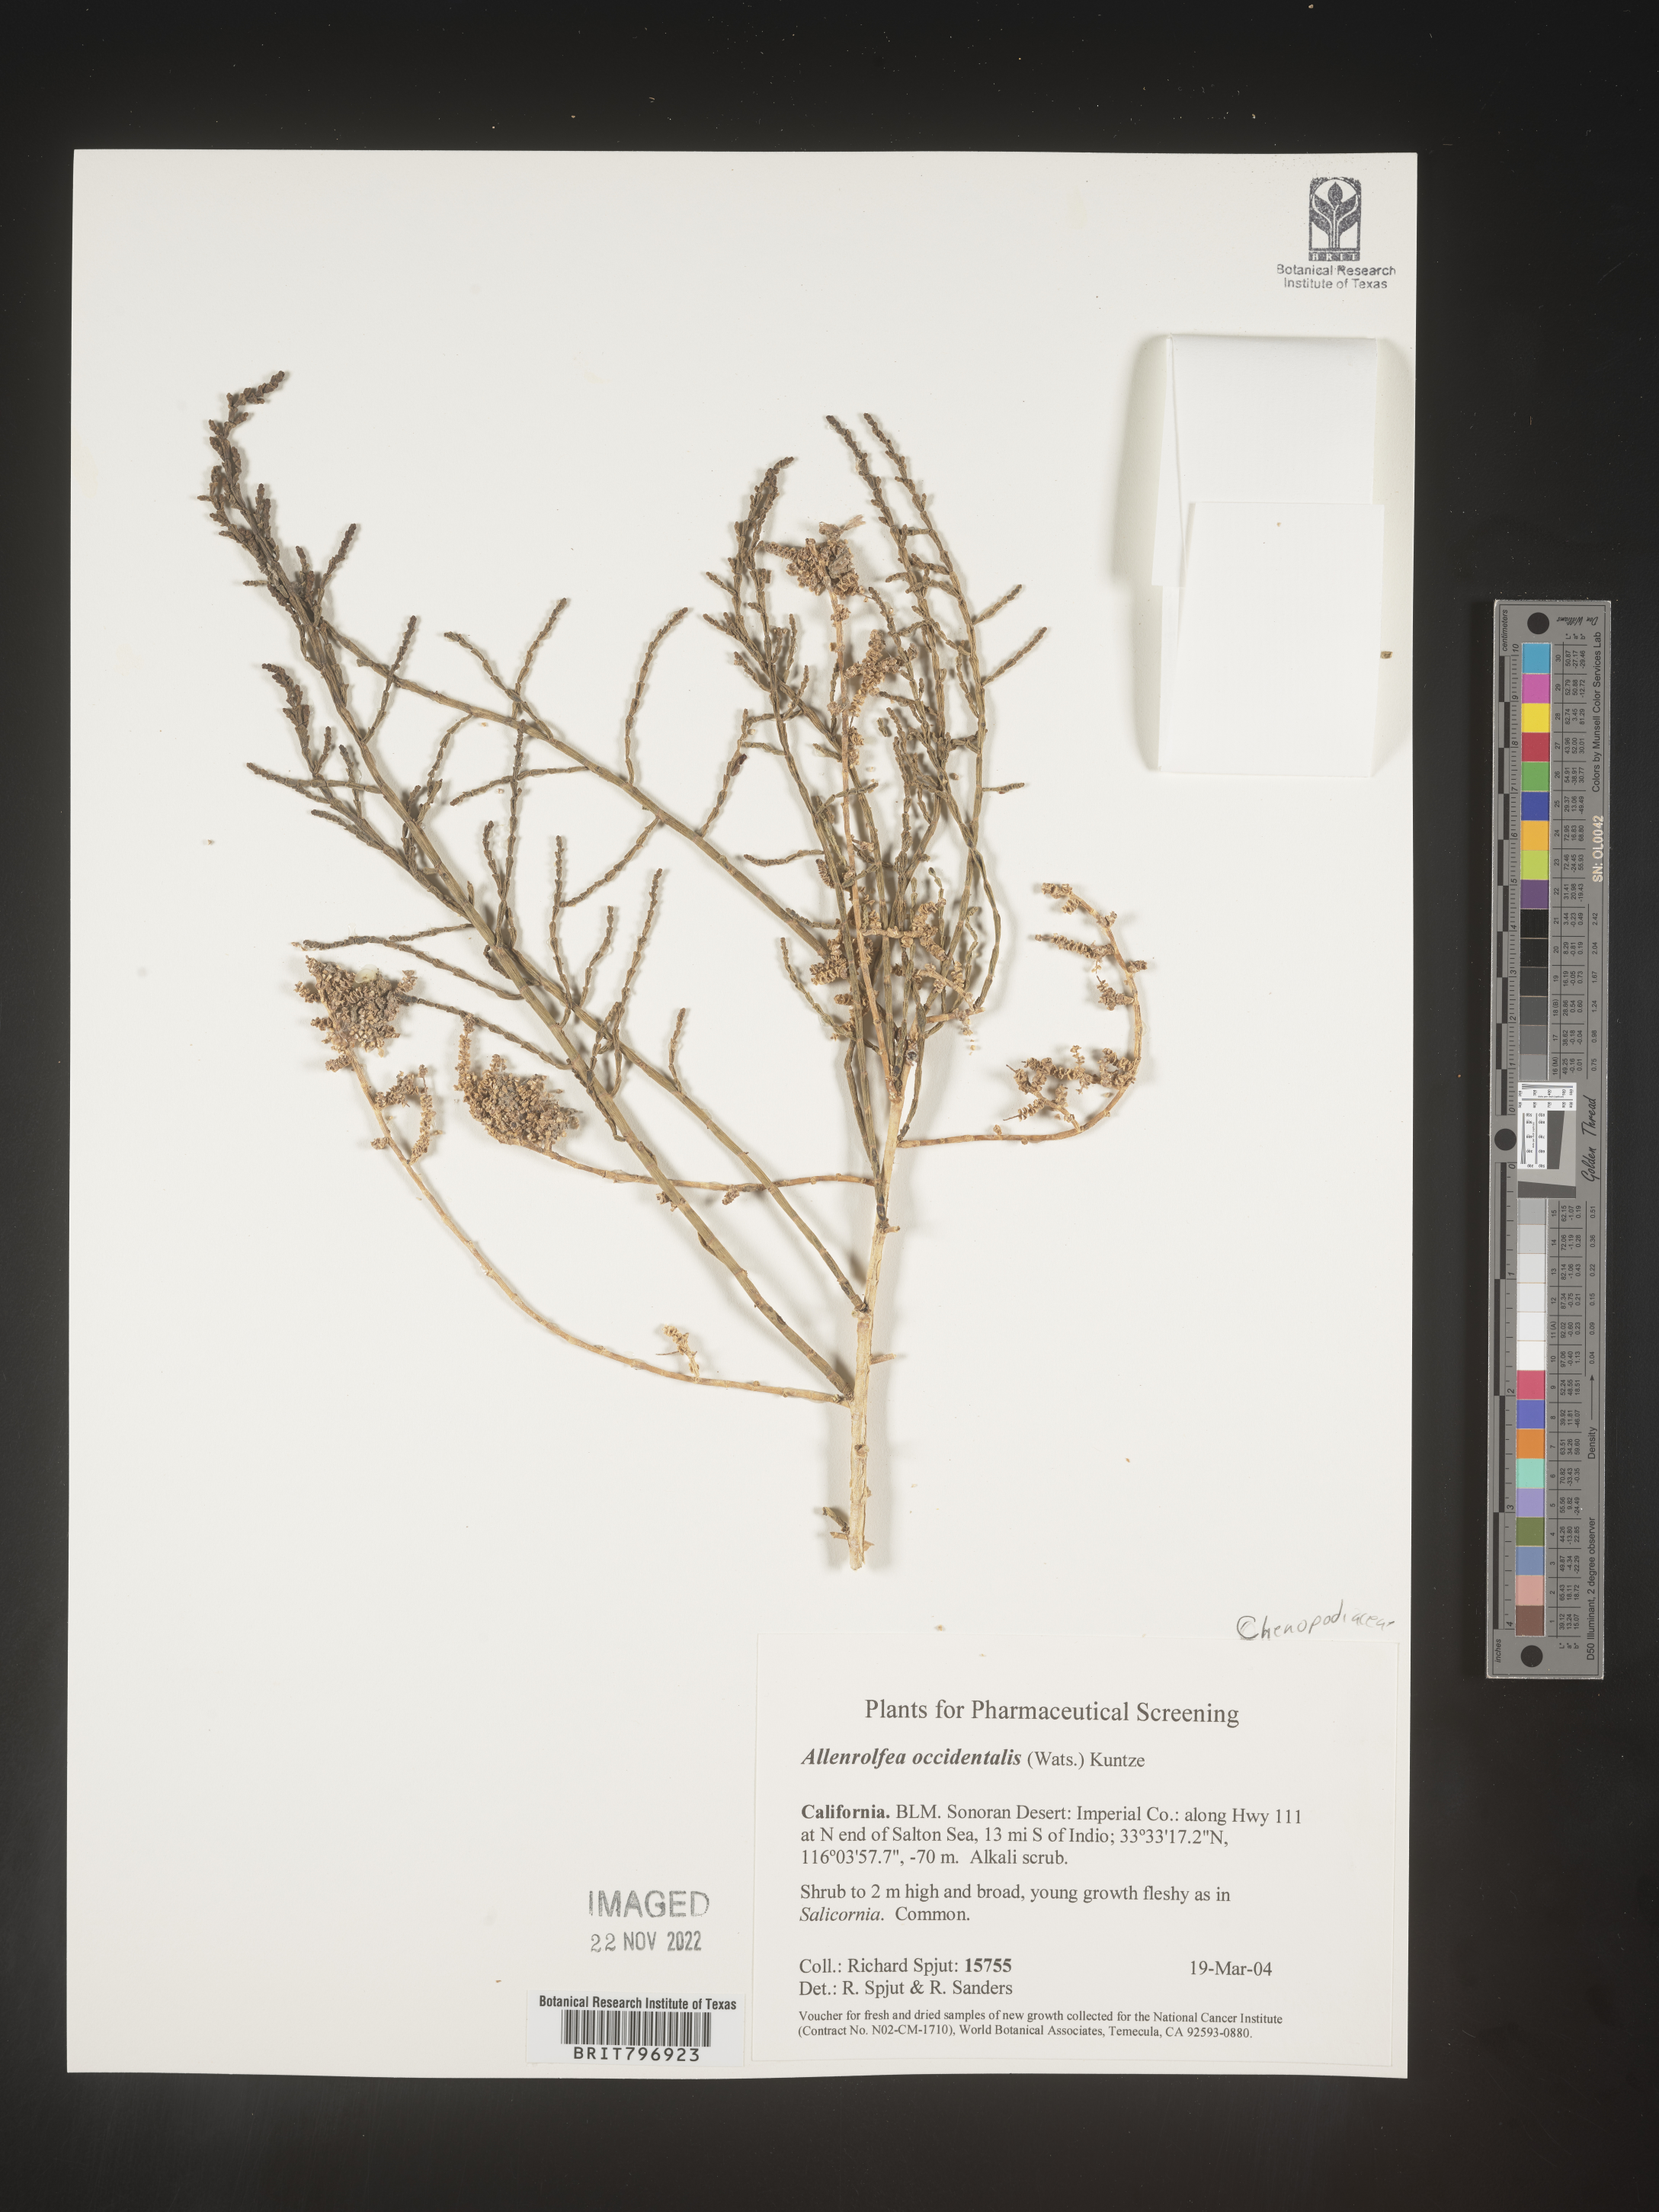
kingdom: Plantae
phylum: Tracheophyta
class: Magnoliopsida
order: Caryophyllales
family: Amaranthaceae
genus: Allenrolfea
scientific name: Allenrolfea
